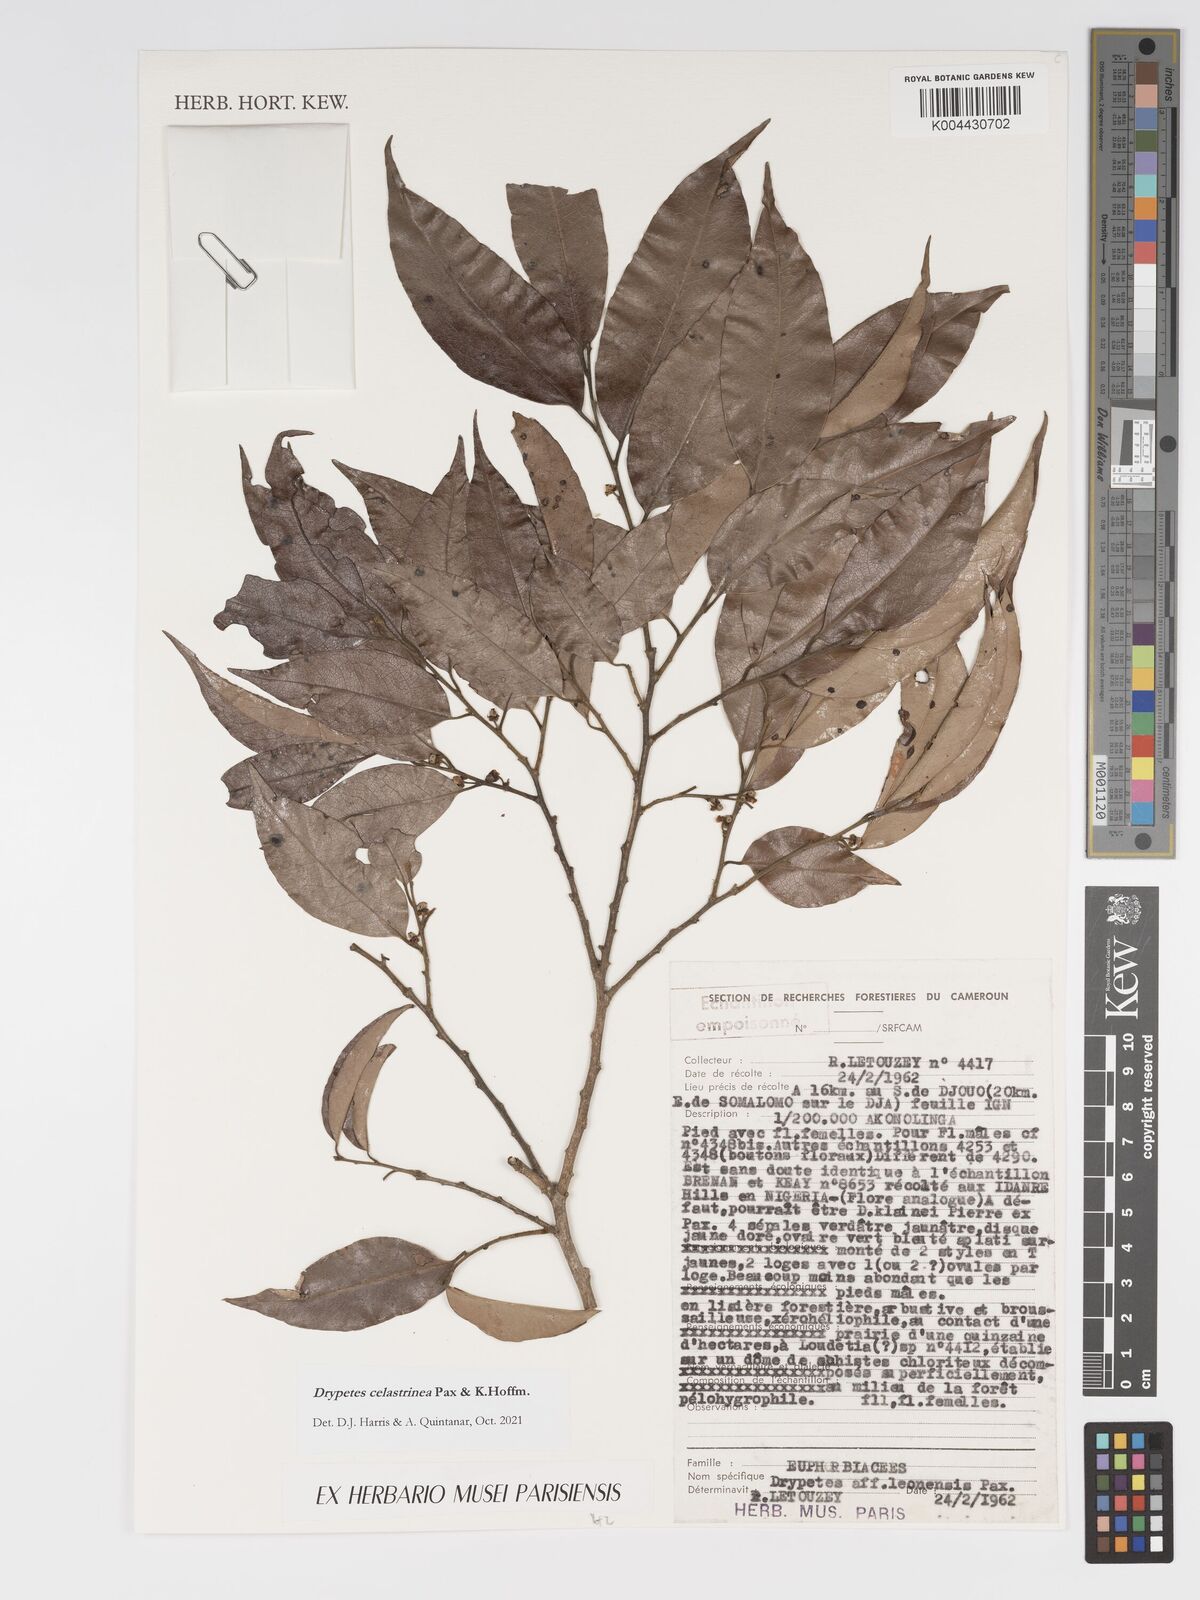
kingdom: Plantae
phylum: Tracheophyta
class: Magnoliopsida
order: Malpighiales
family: Putranjivaceae
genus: Drypetes
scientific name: Drypetes celastrinea
